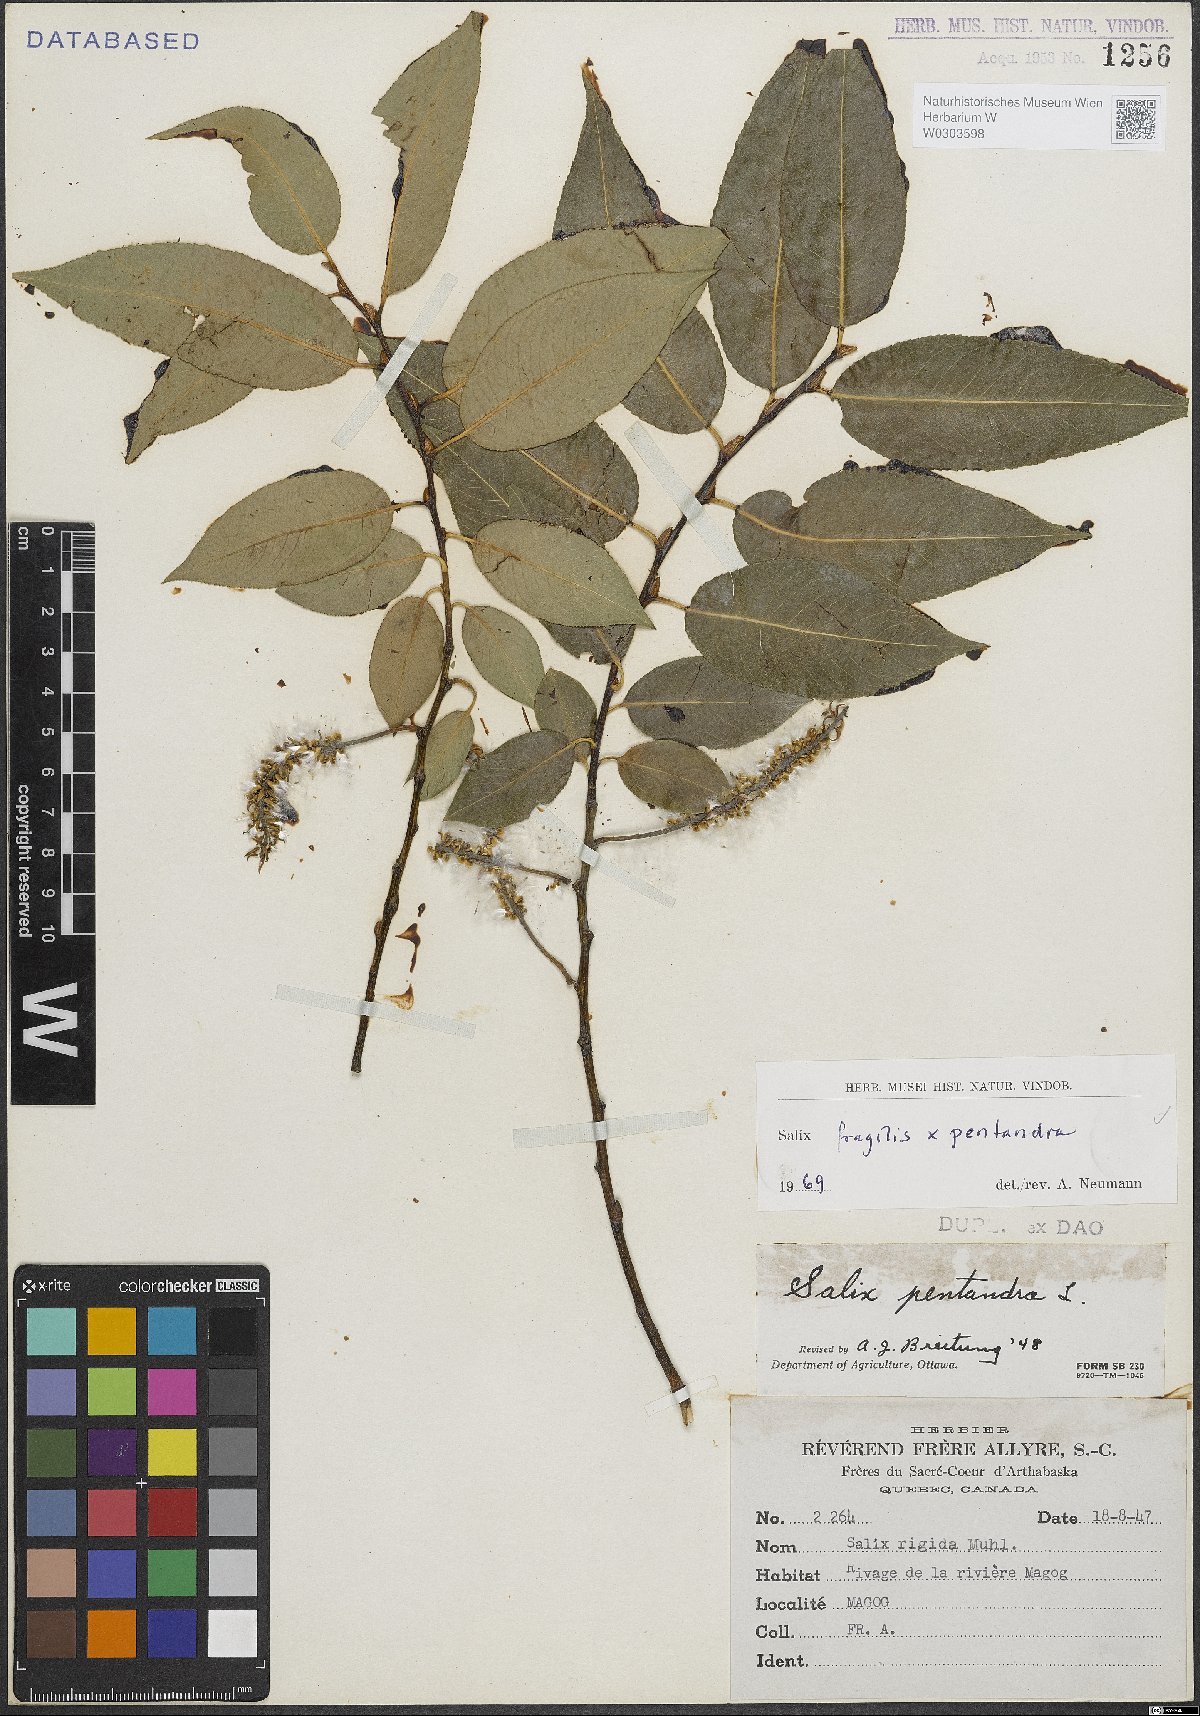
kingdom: Plantae
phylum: Tracheophyta
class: Magnoliopsida
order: Malpighiales
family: Salicaceae
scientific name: Salicaceae
